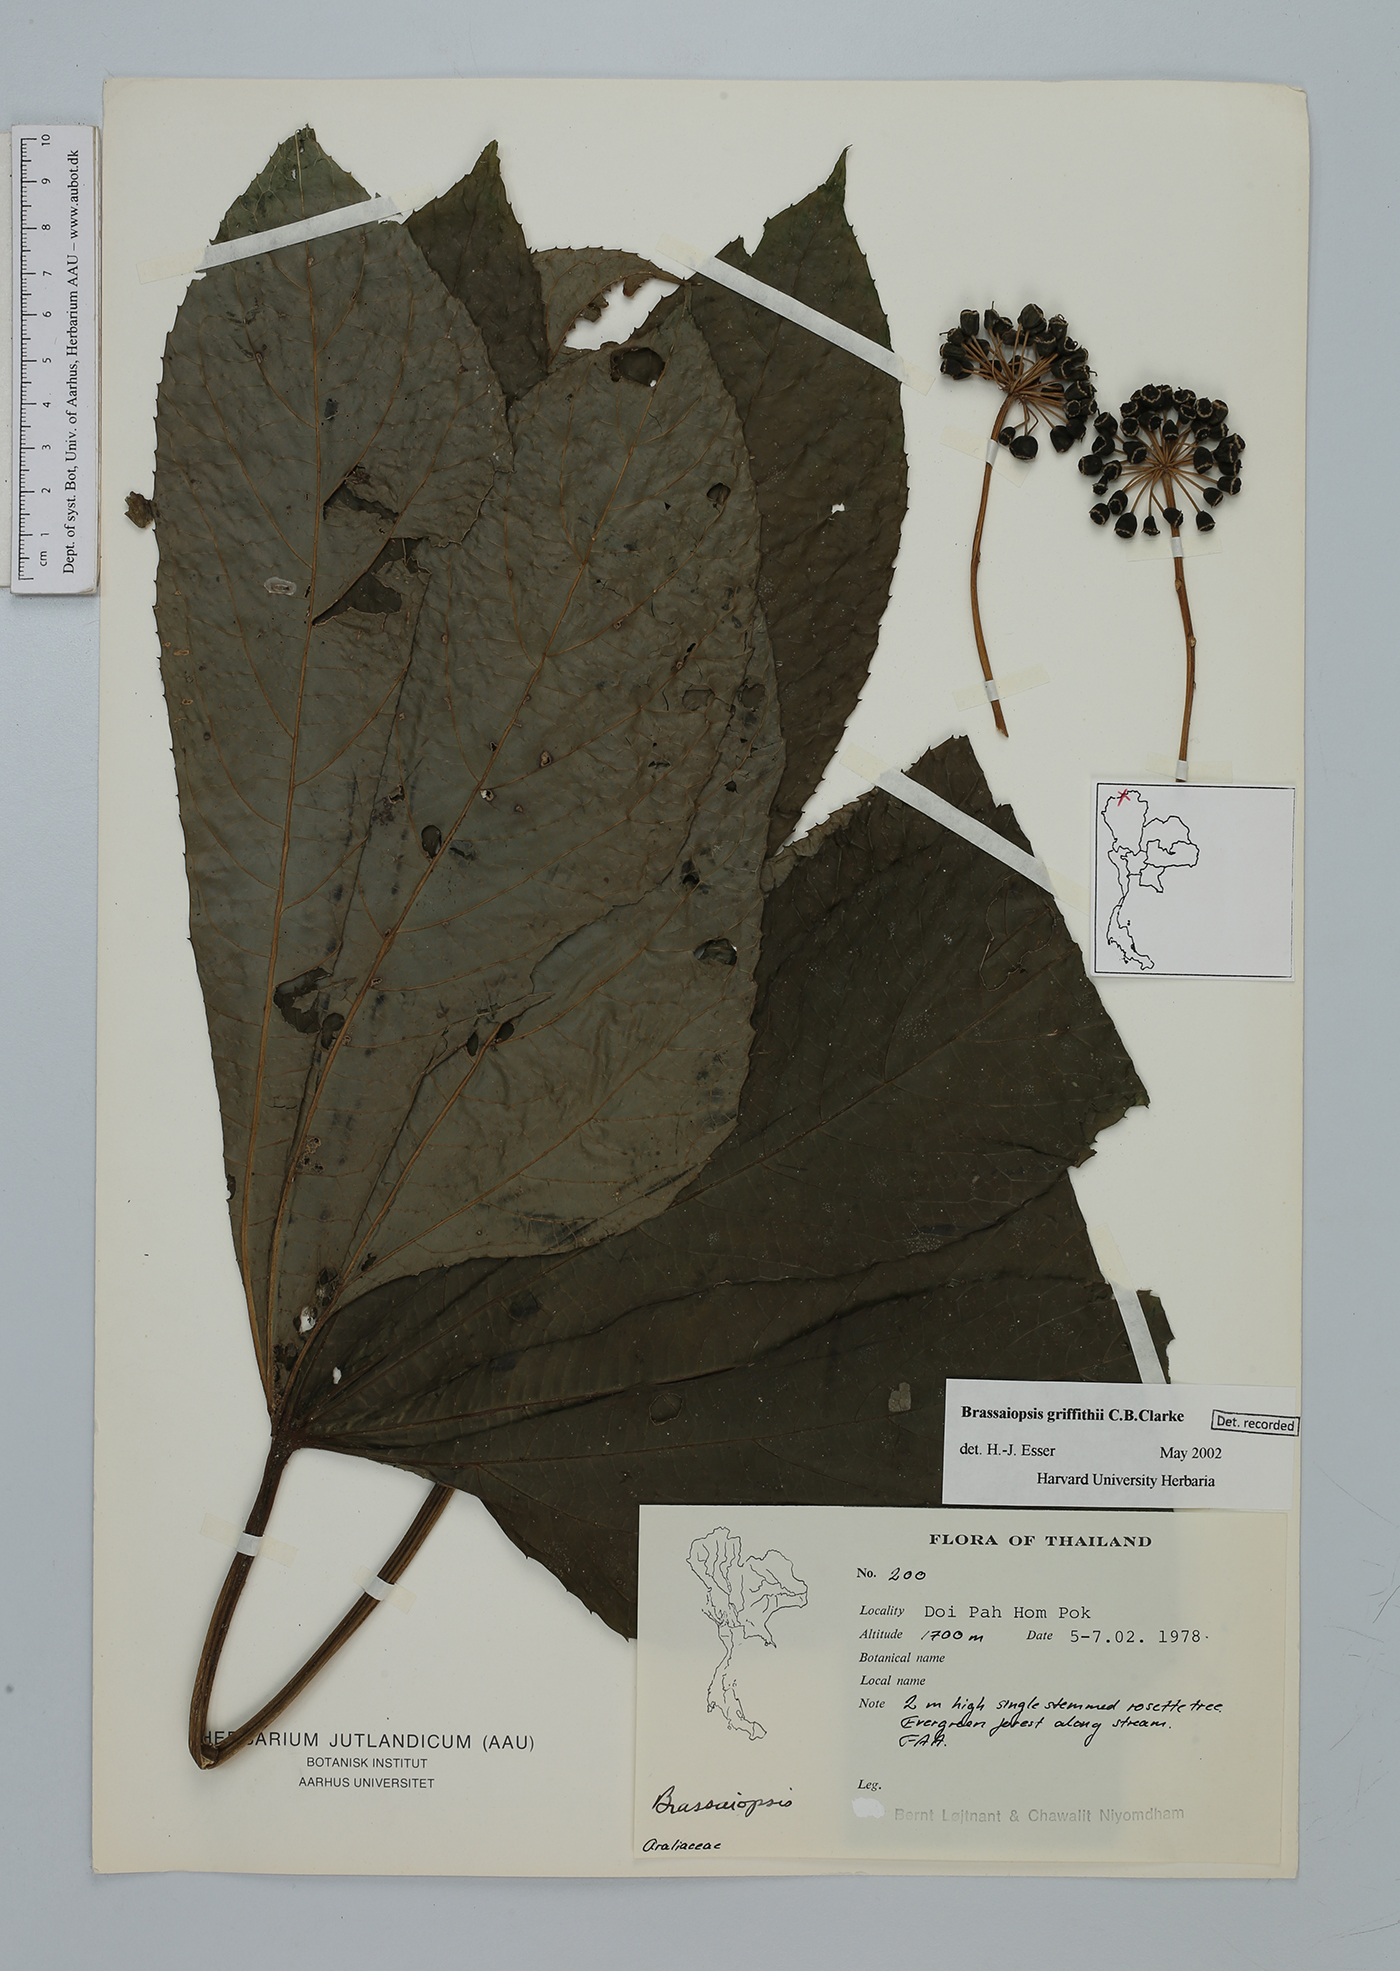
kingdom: Plantae
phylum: Tracheophyta
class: Magnoliopsida
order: Apiales
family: Araliaceae
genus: Brassaiopsis
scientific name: Brassaiopsis griffithii
